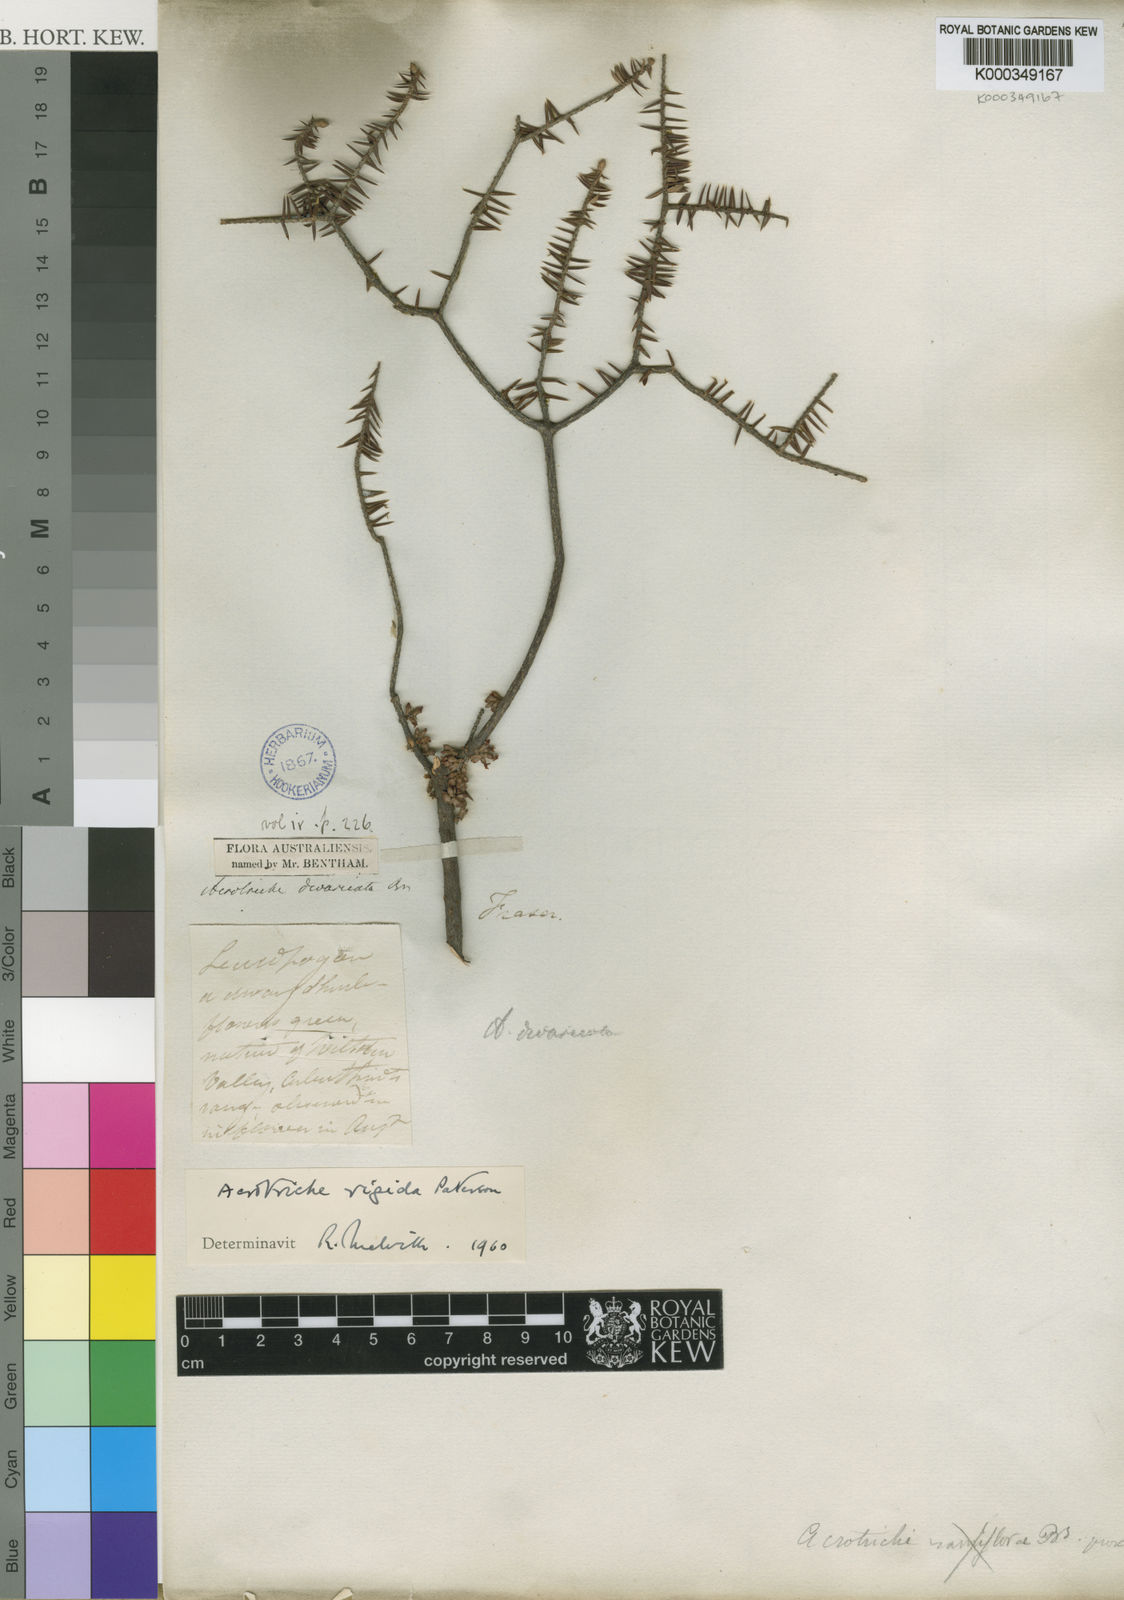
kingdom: Plantae
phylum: Tracheophyta
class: Magnoliopsida
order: Ericales
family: Ericaceae
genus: Acrotriche
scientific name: Acrotriche rigida
